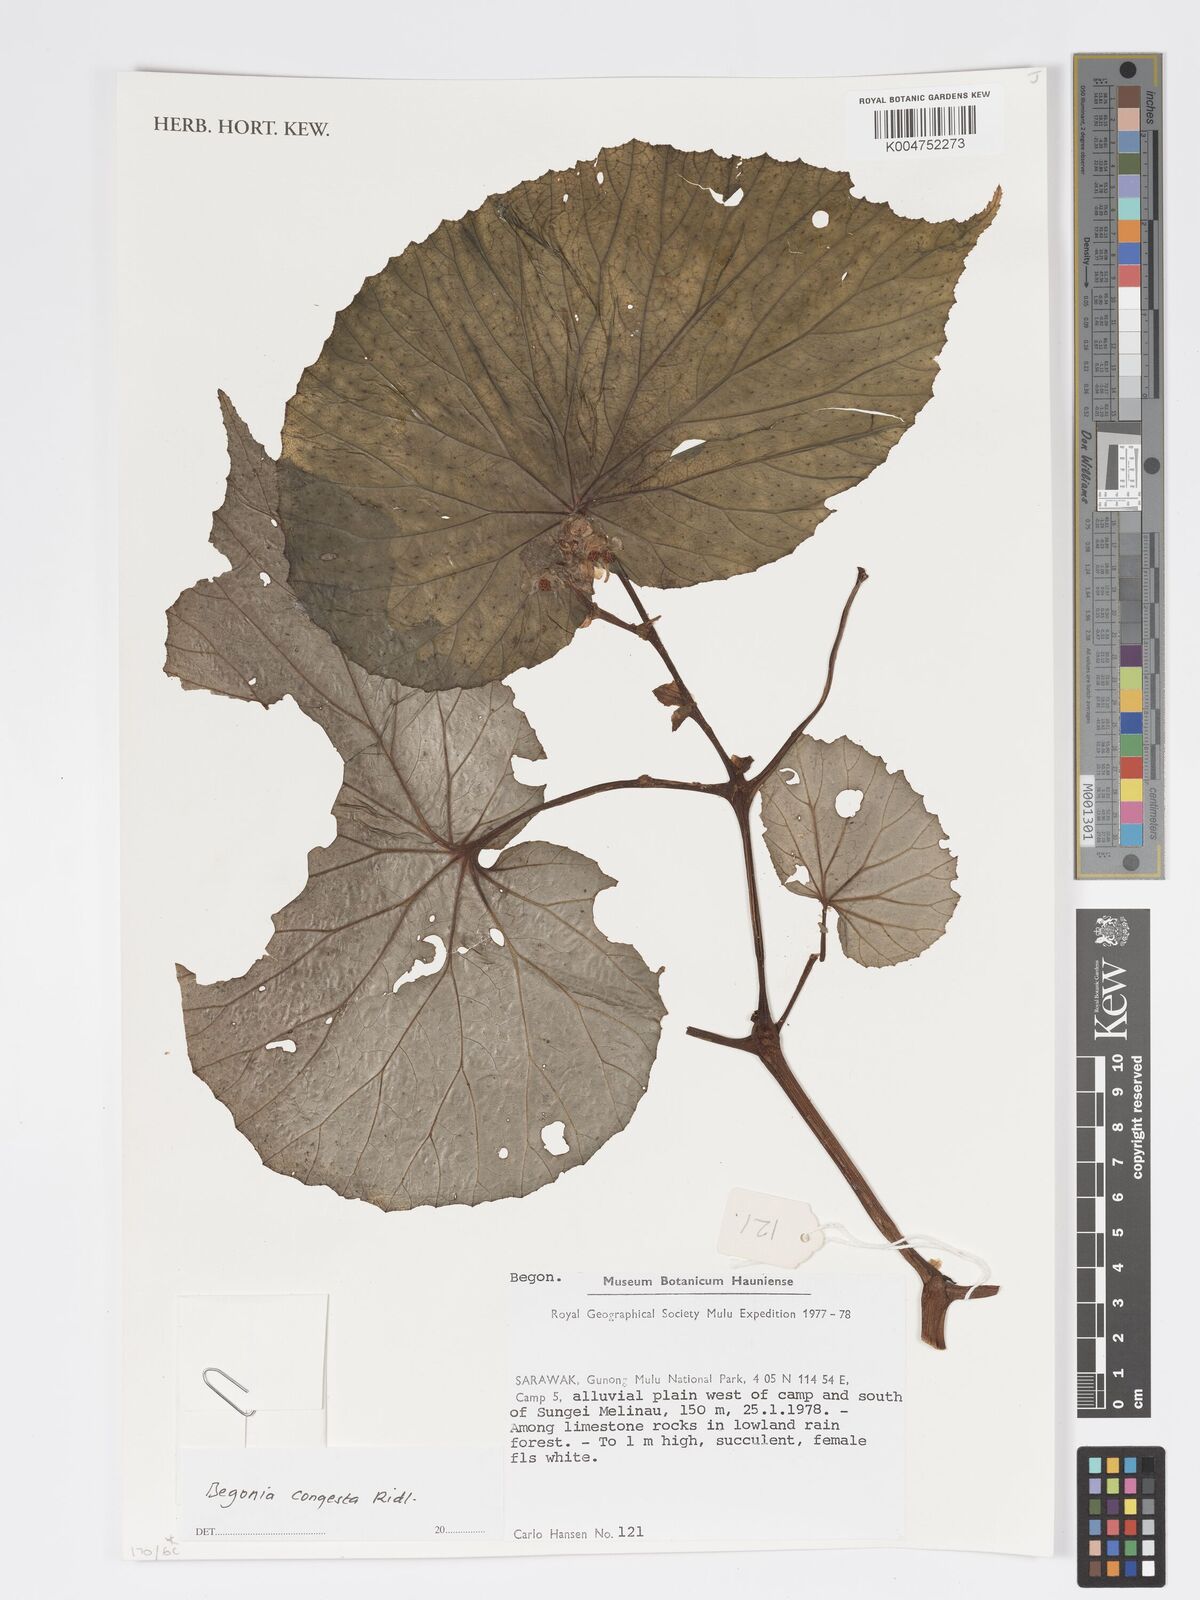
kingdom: Plantae
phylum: Tracheophyta
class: Magnoliopsida
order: Cucurbitales
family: Begoniaceae
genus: Begonia
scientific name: Begonia congesta
